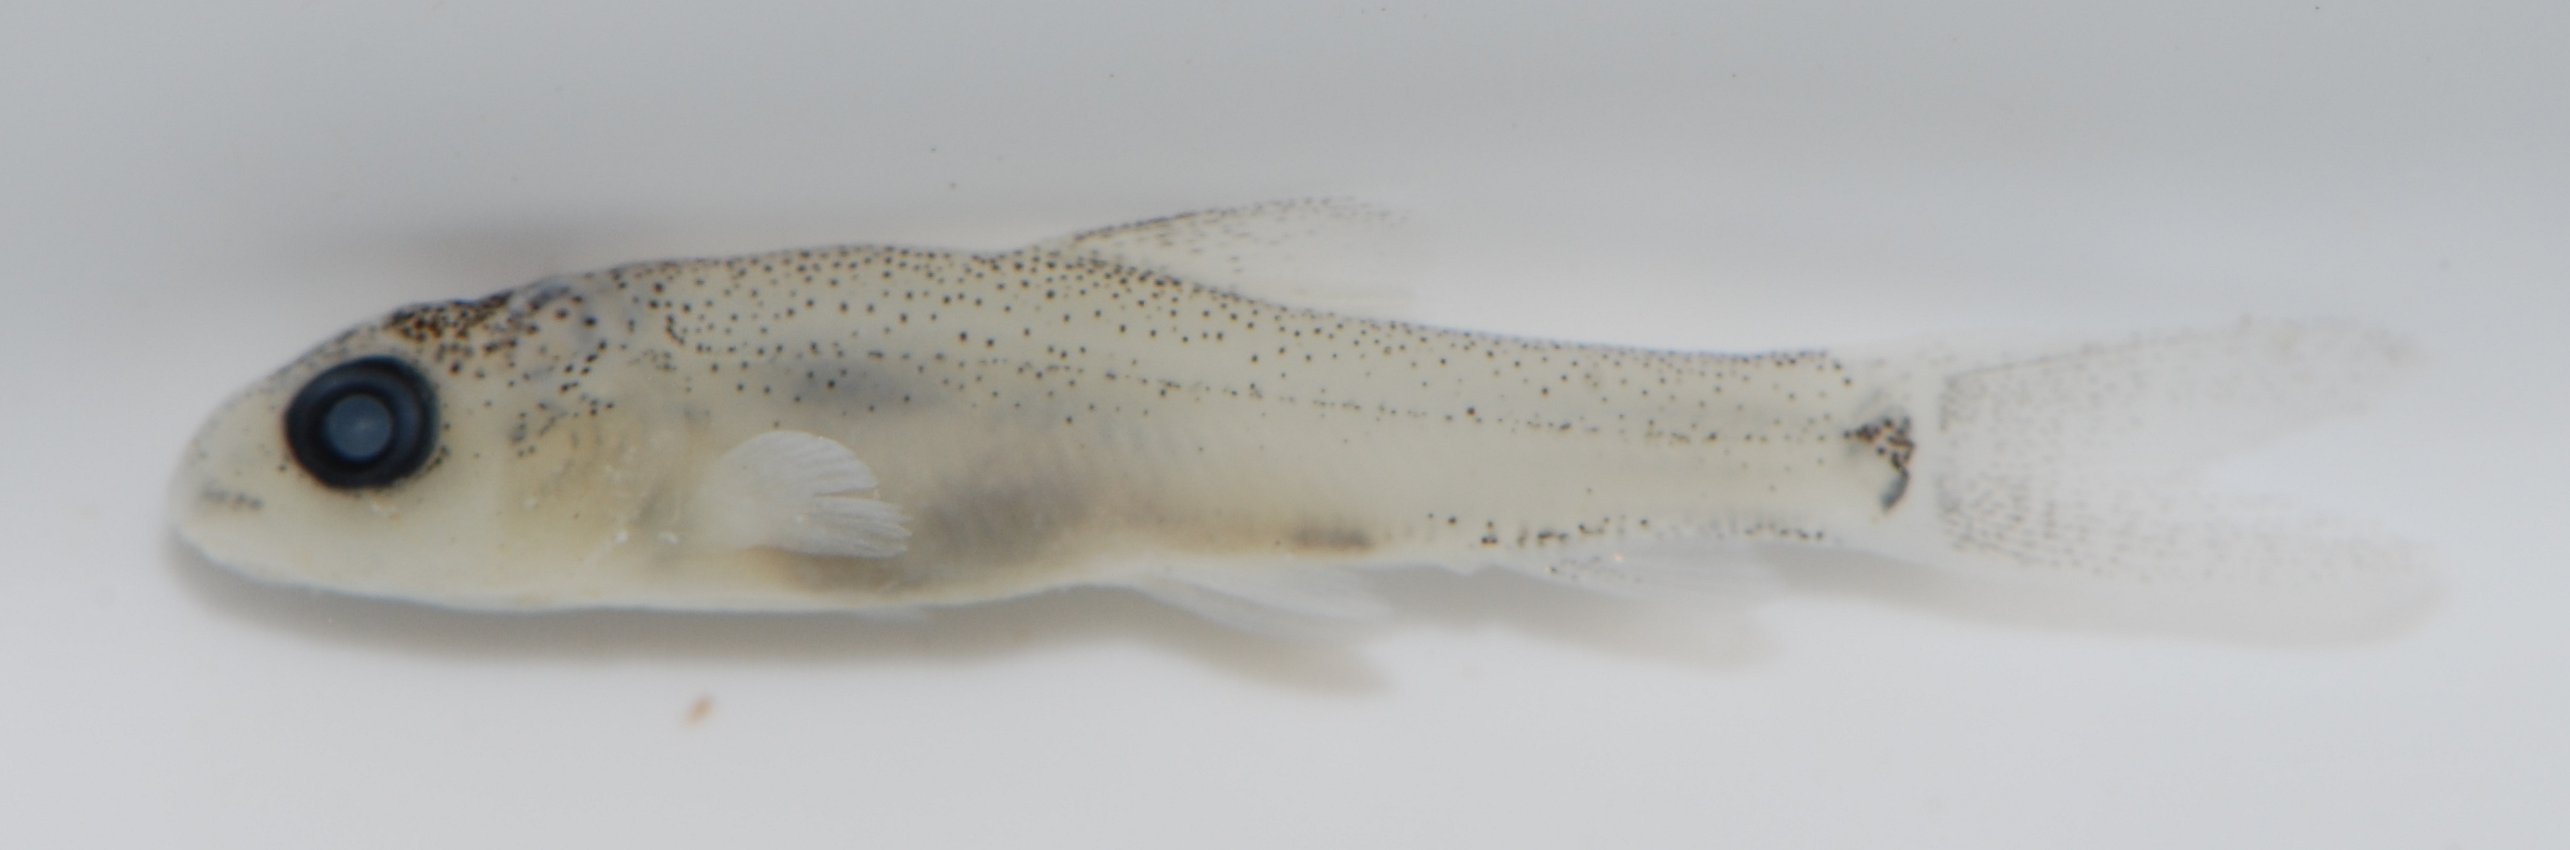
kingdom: Animalia
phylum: Chordata
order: Cypriniformes
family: Cyprinidae
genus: Barbus
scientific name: Barbus
